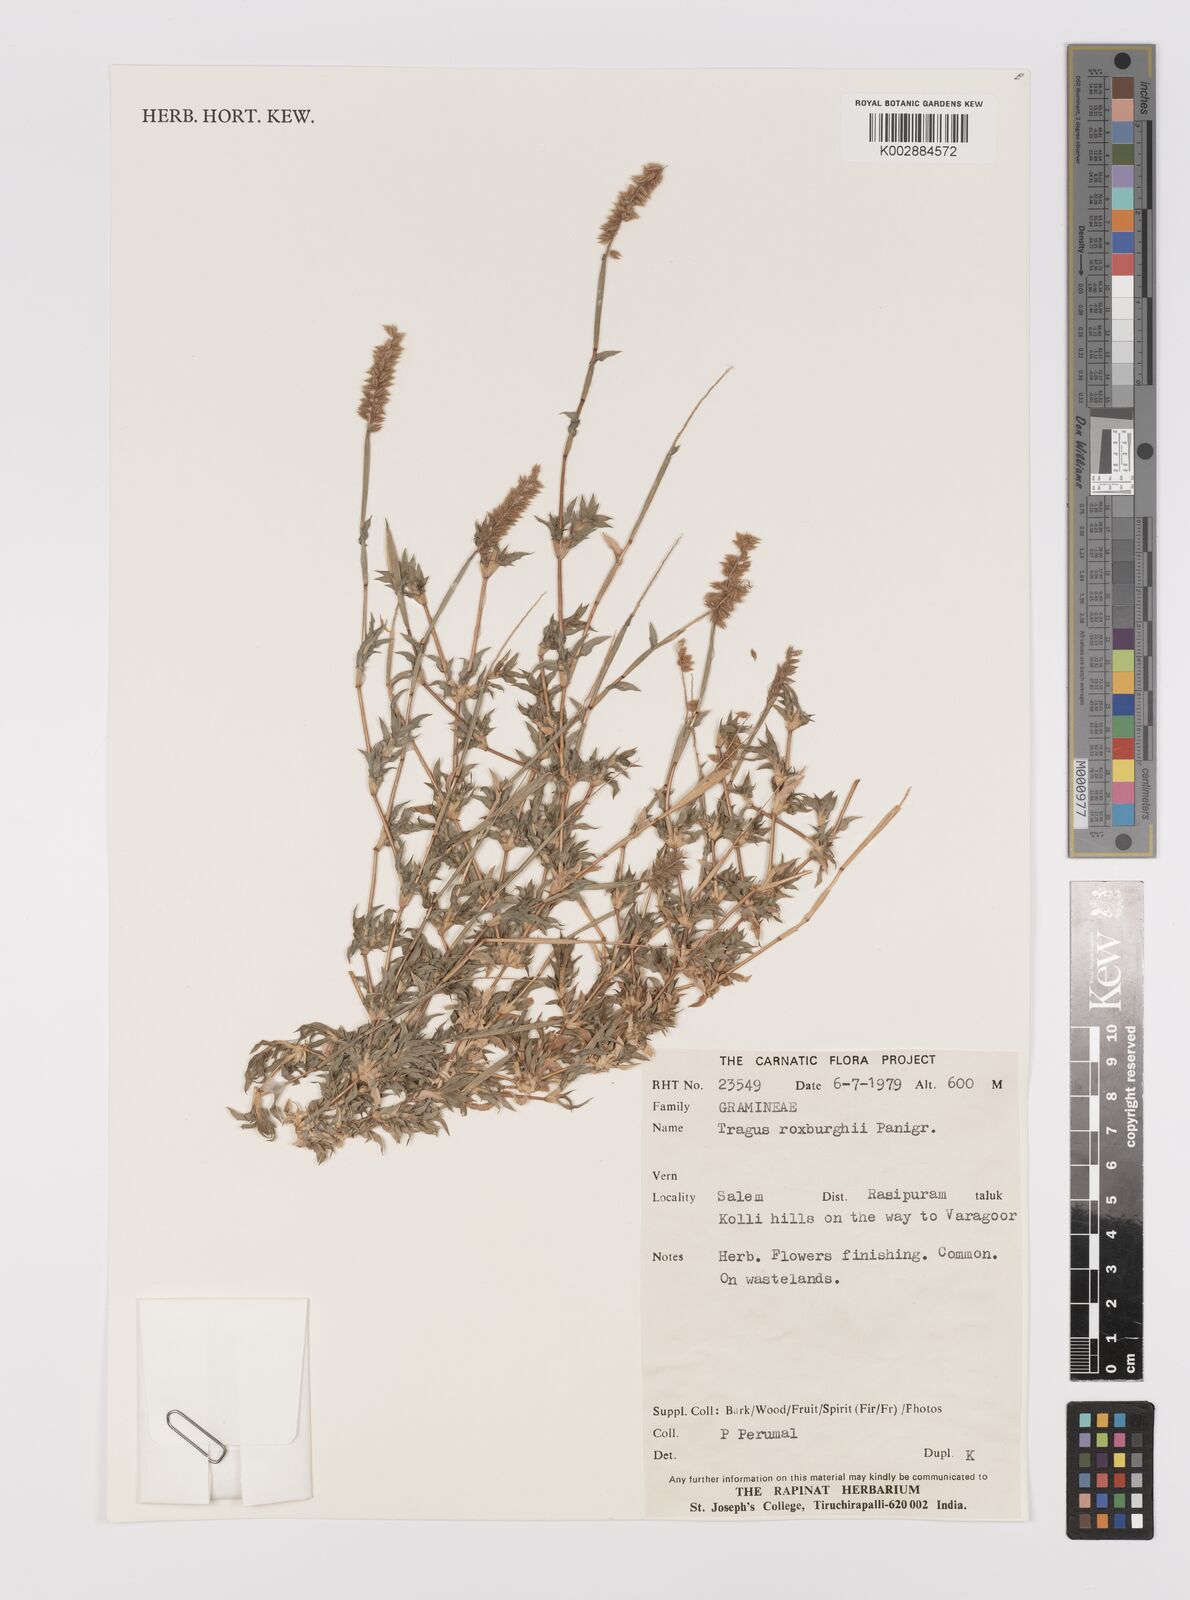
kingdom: Plantae
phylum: Tracheophyta
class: Liliopsida
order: Poales
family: Poaceae
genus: Tragus
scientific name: Tragus mongolorum
